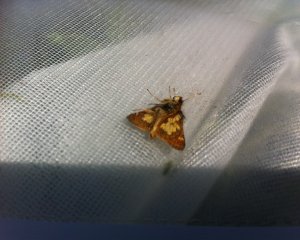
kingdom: Animalia
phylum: Arthropoda
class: Insecta
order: Lepidoptera
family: Hesperiidae
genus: Polites
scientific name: Polites coras
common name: Peck's Skipper
